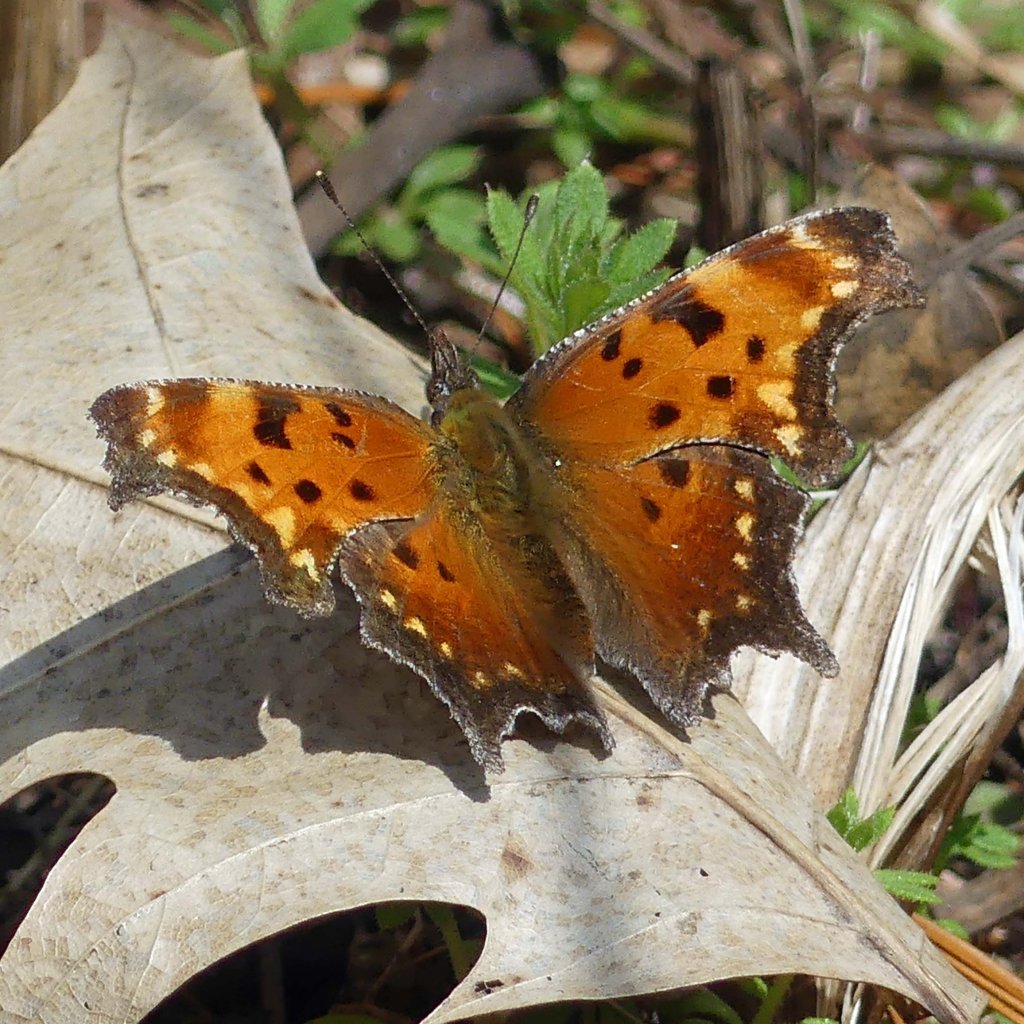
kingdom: Animalia
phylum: Arthropoda
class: Insecta
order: Lepidoptera
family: Nymphalidae
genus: Polygonia
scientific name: Polygonia progne
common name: Gray Comma
